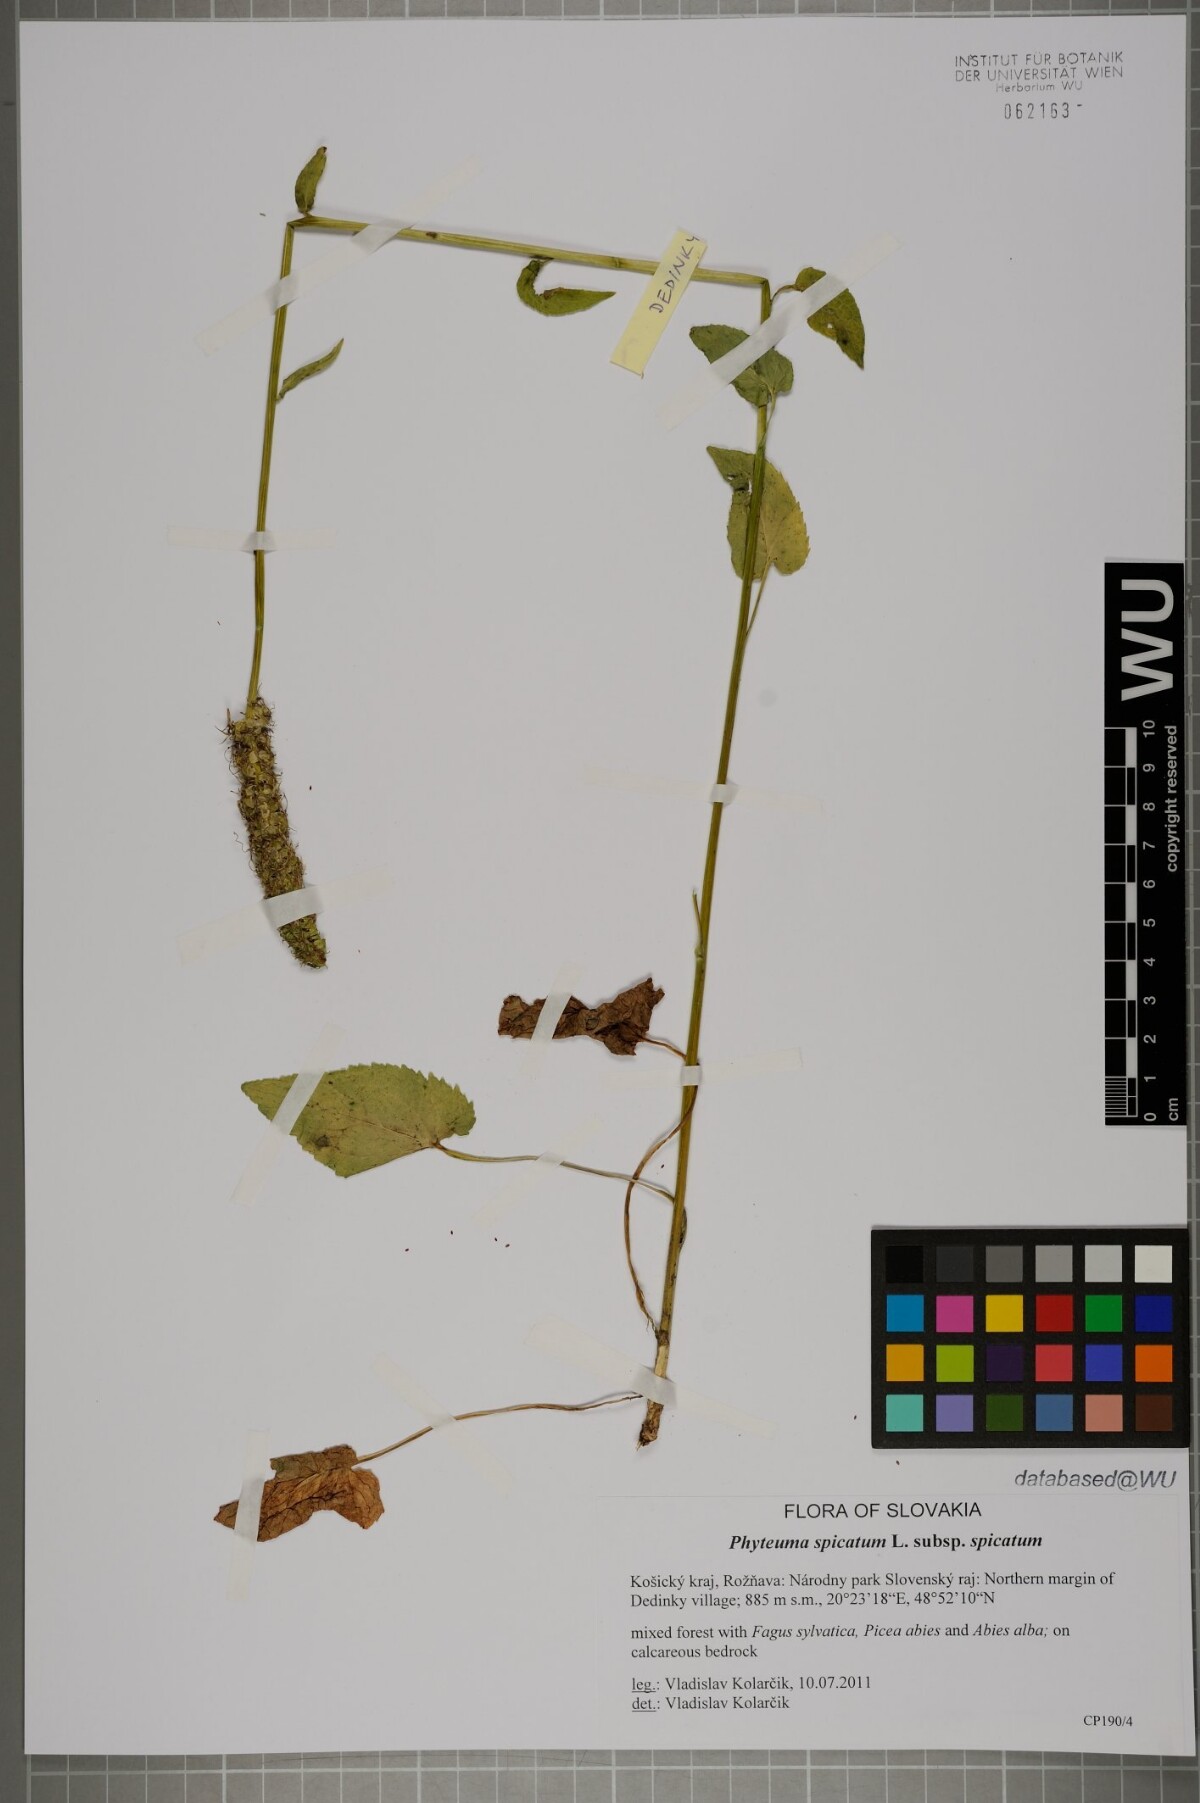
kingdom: Plantae
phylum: Tracheophyta
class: Magnoliopsida
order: Asterales
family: Campanulaceae
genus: Phyteuma
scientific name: Phyteuma spicatum
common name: Spiked rampion
